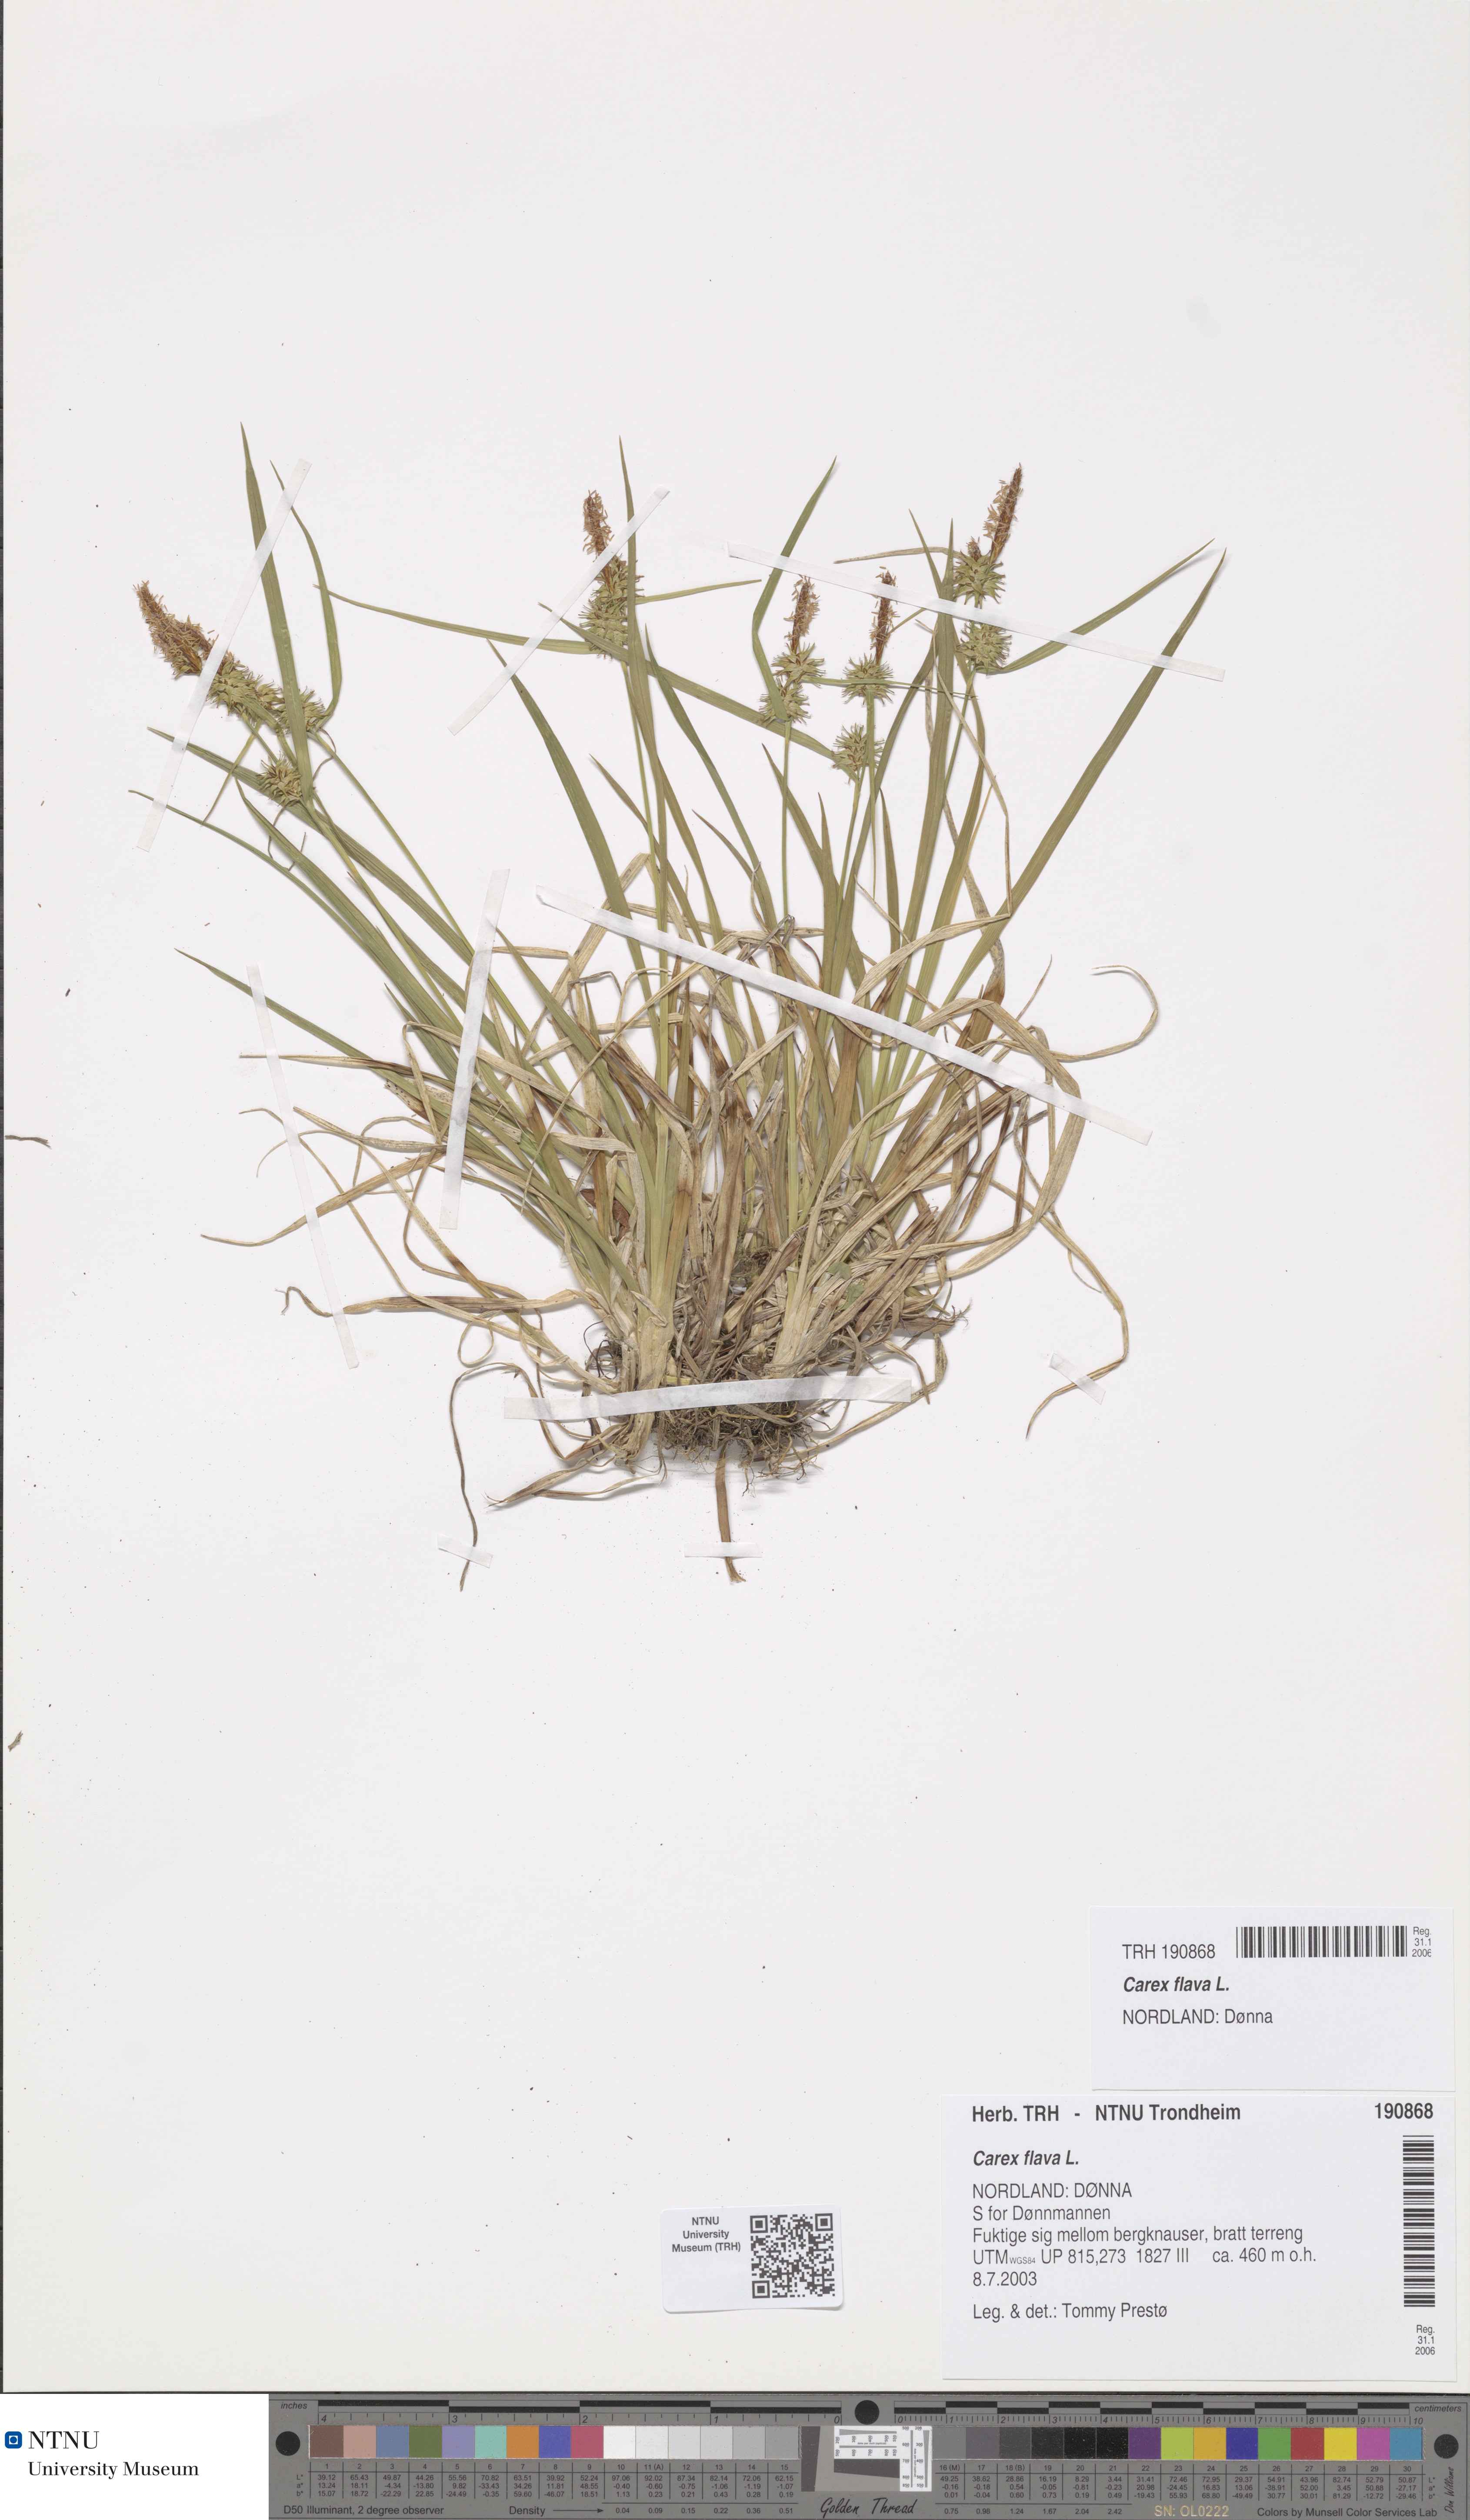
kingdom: Plantae
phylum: Tracheophyta
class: Liliopsida
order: Poales
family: Cyperaceae
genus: Carex
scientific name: Carex flava
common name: Large yellow-sedge
